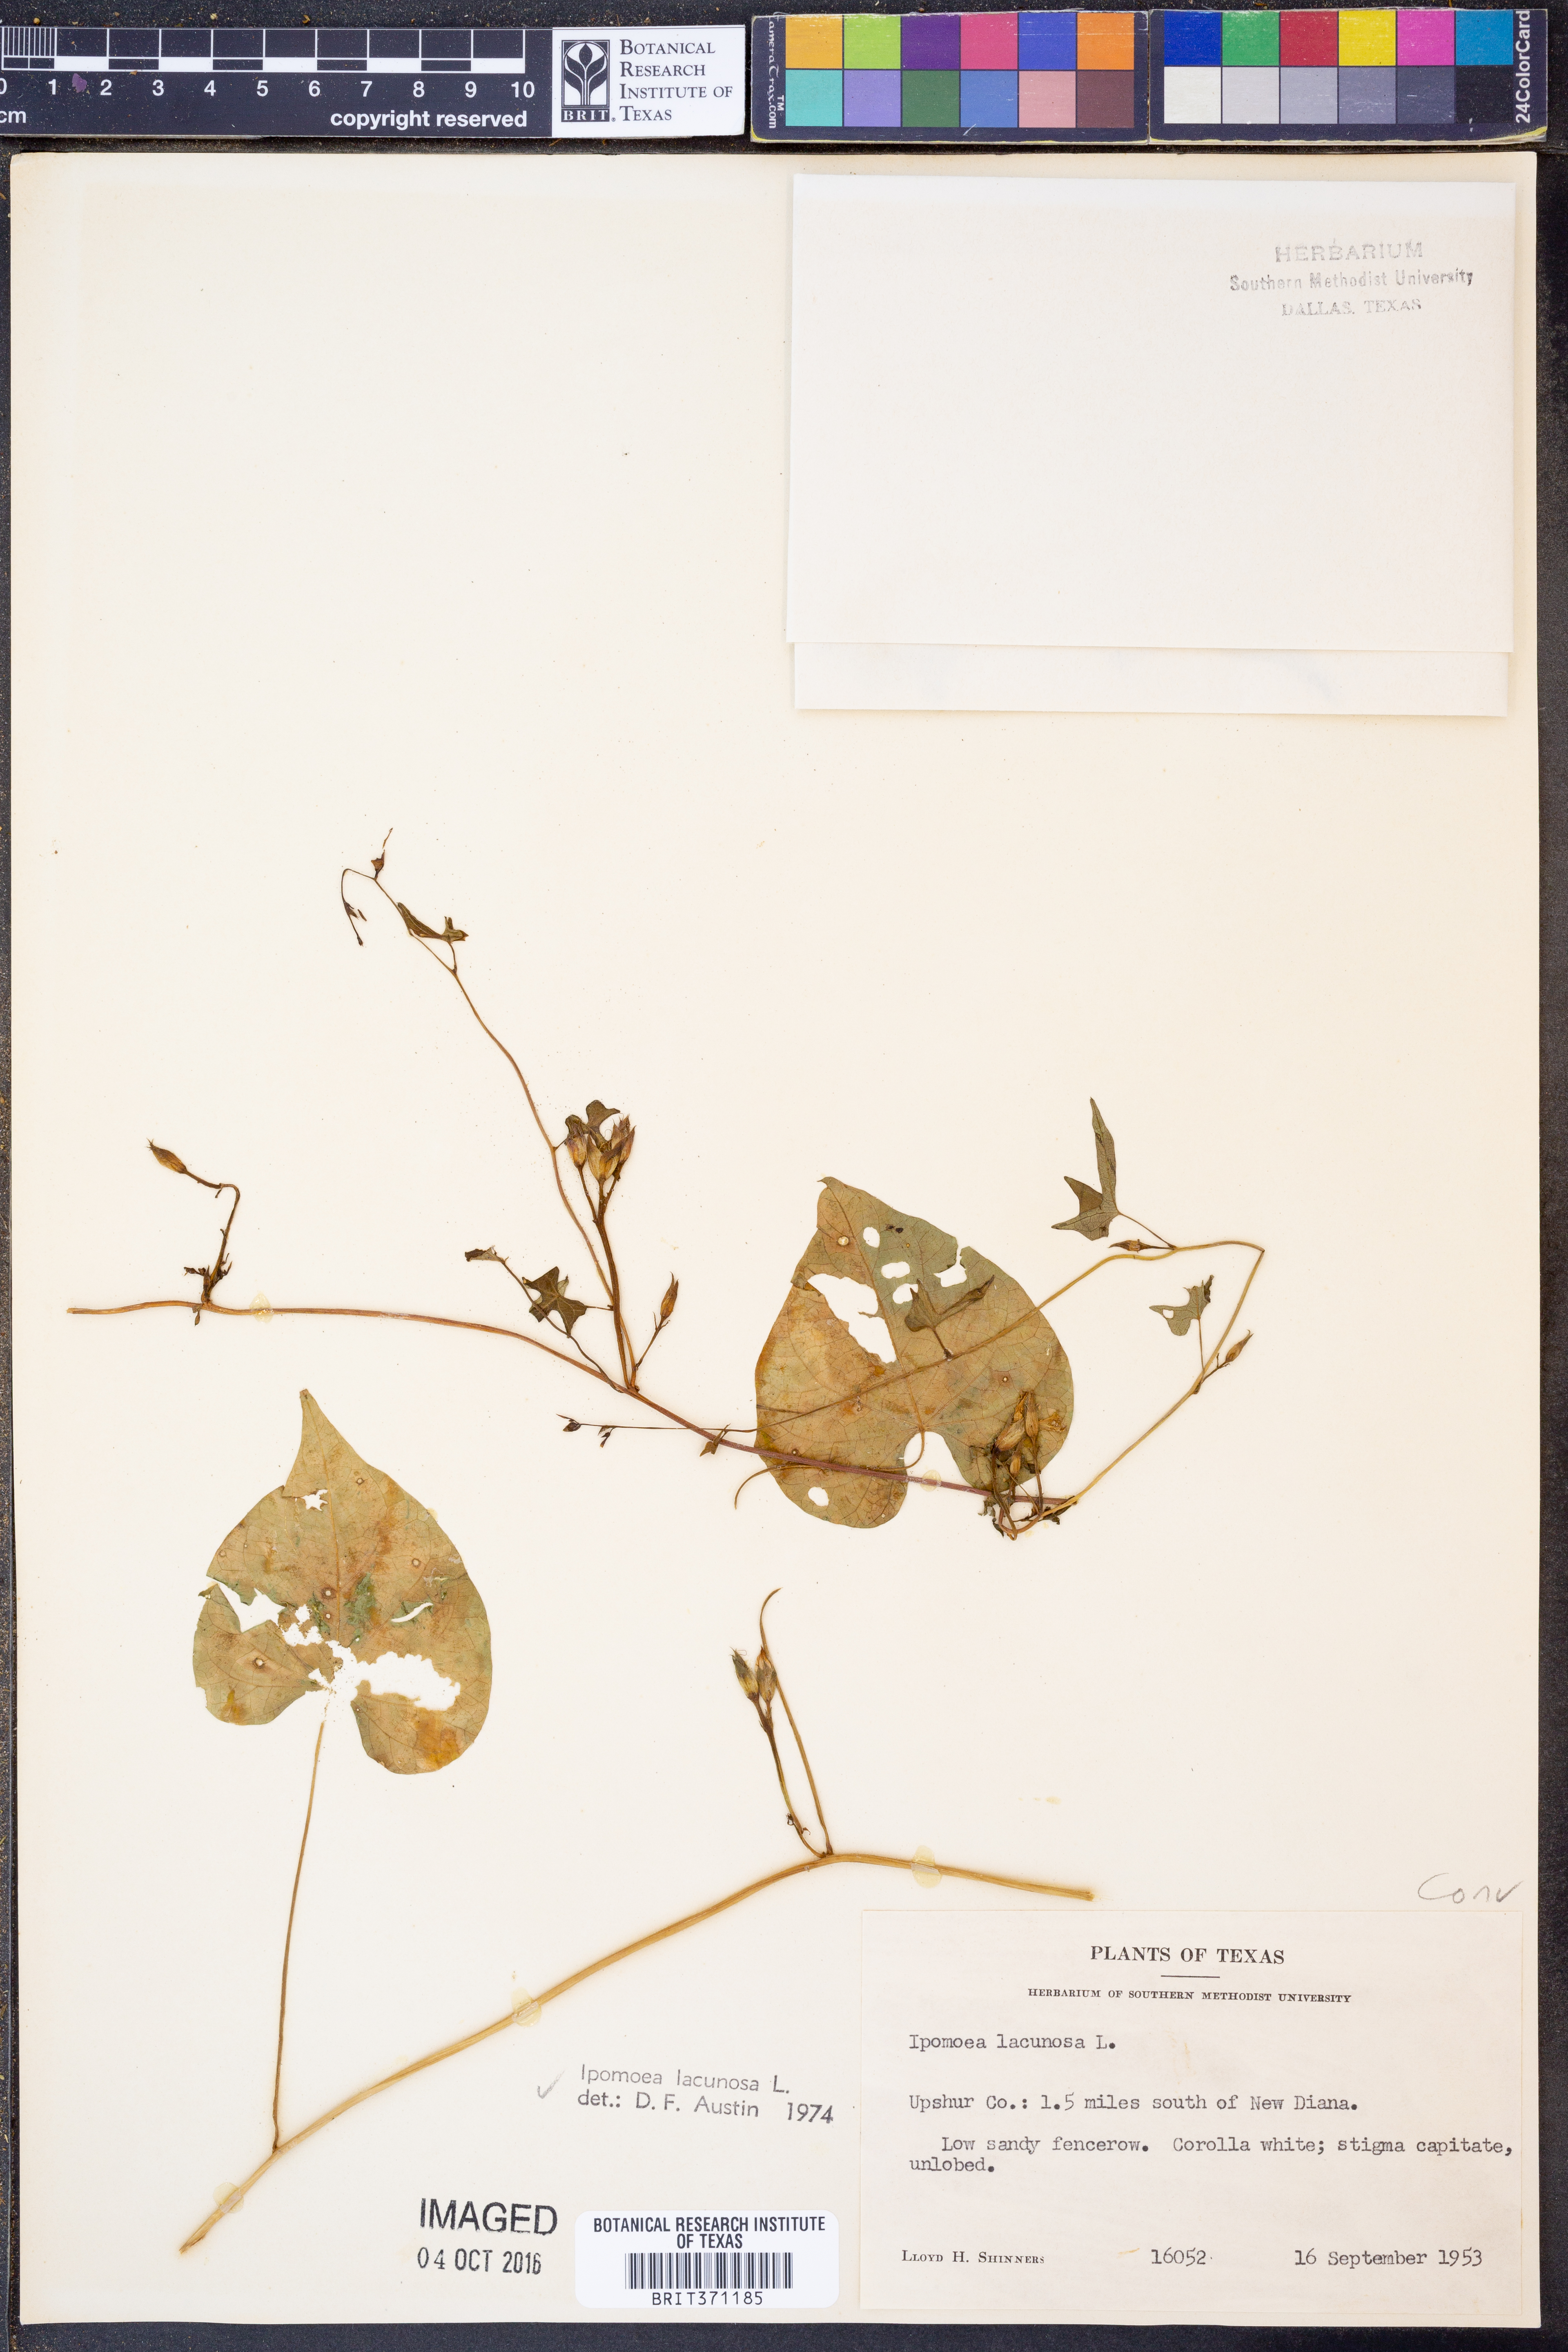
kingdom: Plantae
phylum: Tracheophyta
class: Magnoliopsida
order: Solanales
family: Convolvulaceae
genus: Ipomoea
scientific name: Ipomoea lacunosa
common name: White morning-glory
